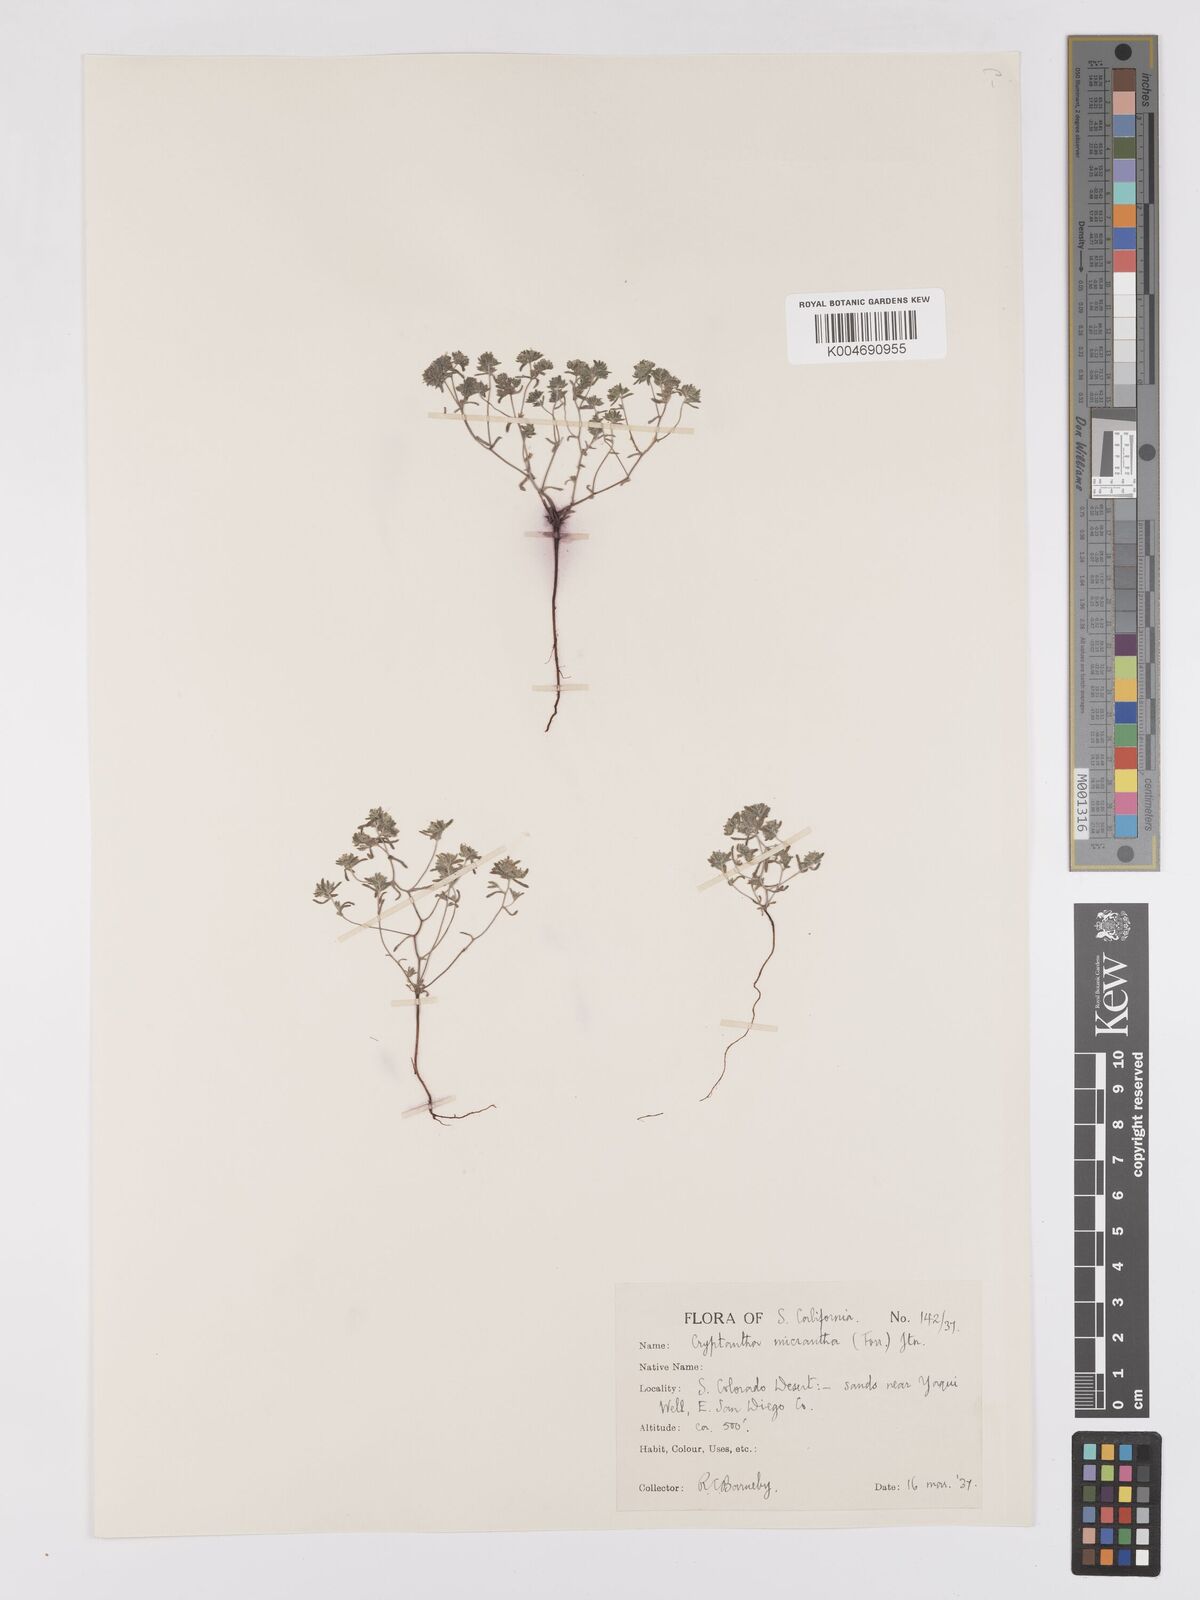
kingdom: Plantae
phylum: Tracheophyta
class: Magnoliopsida
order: Boraginales
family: Boraginaceae
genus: Eremocarya
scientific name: Eremocarya micrantha
